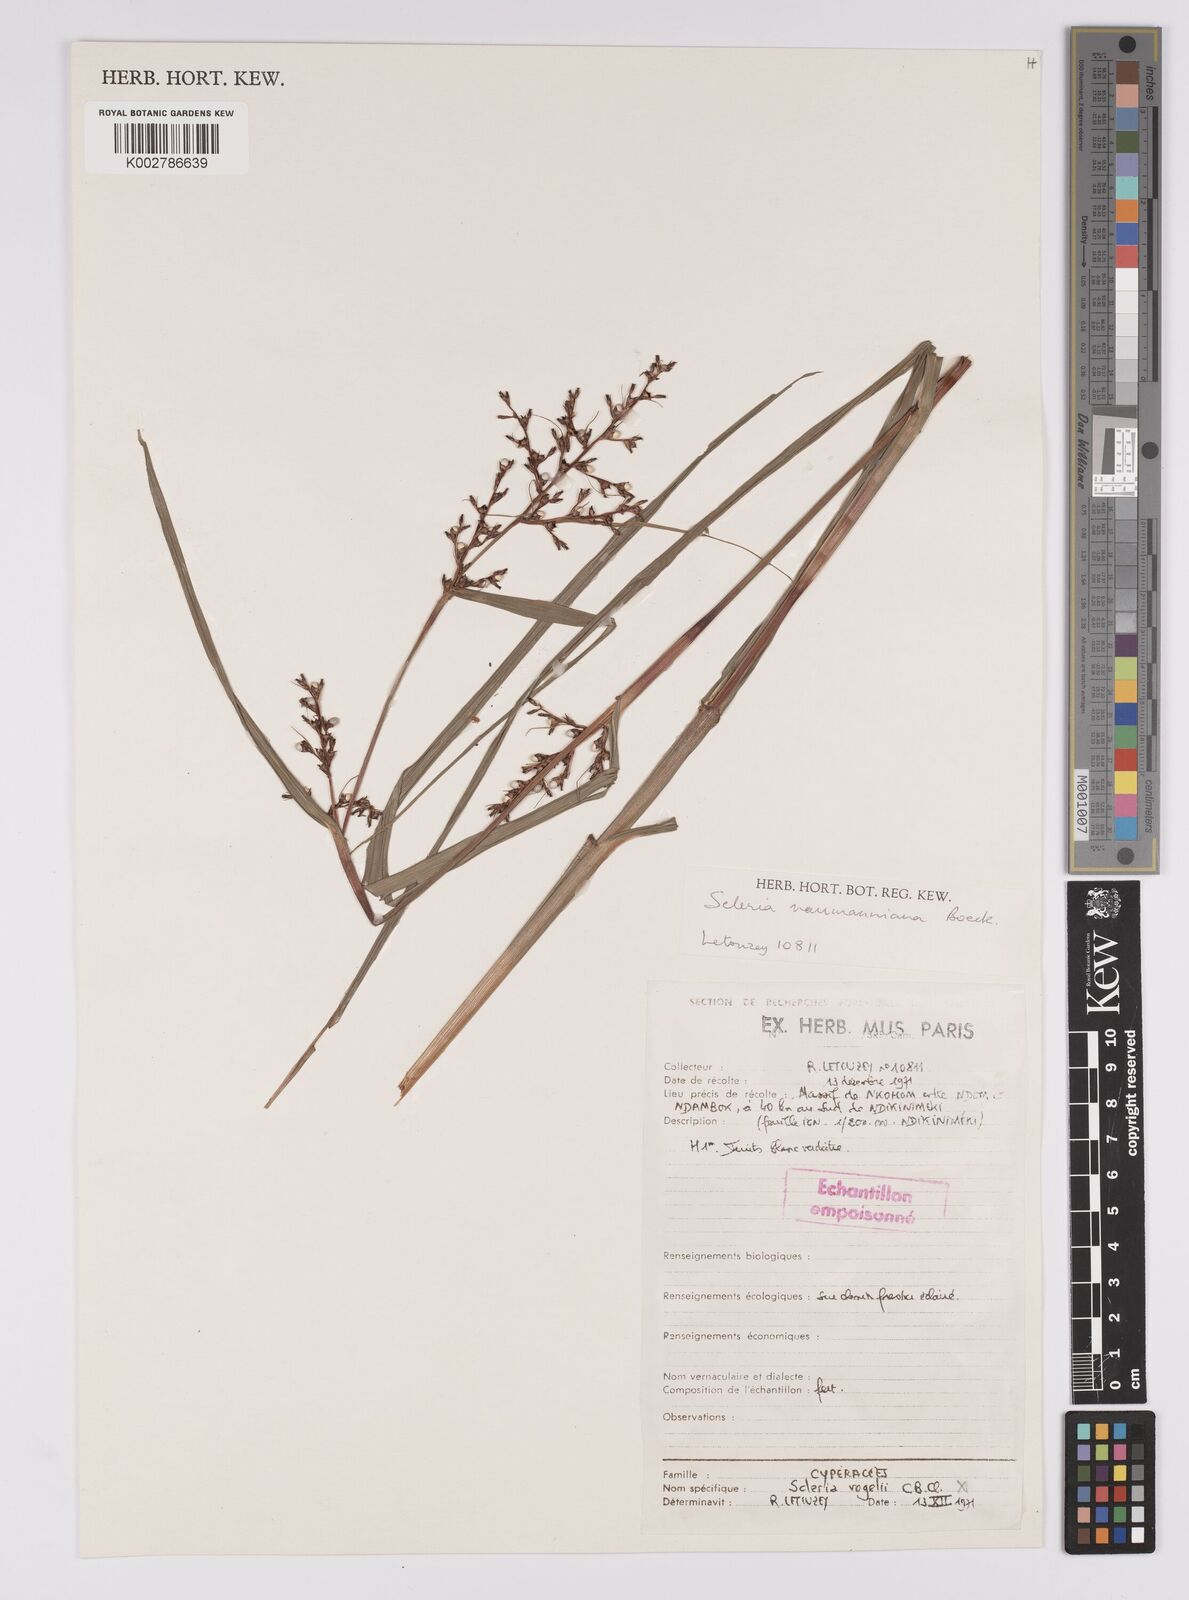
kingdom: Plantae
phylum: Tracheophyta
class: Liliopsida
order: Poales
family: Cyperaceae
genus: Scleria
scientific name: Scleria naumanniana
